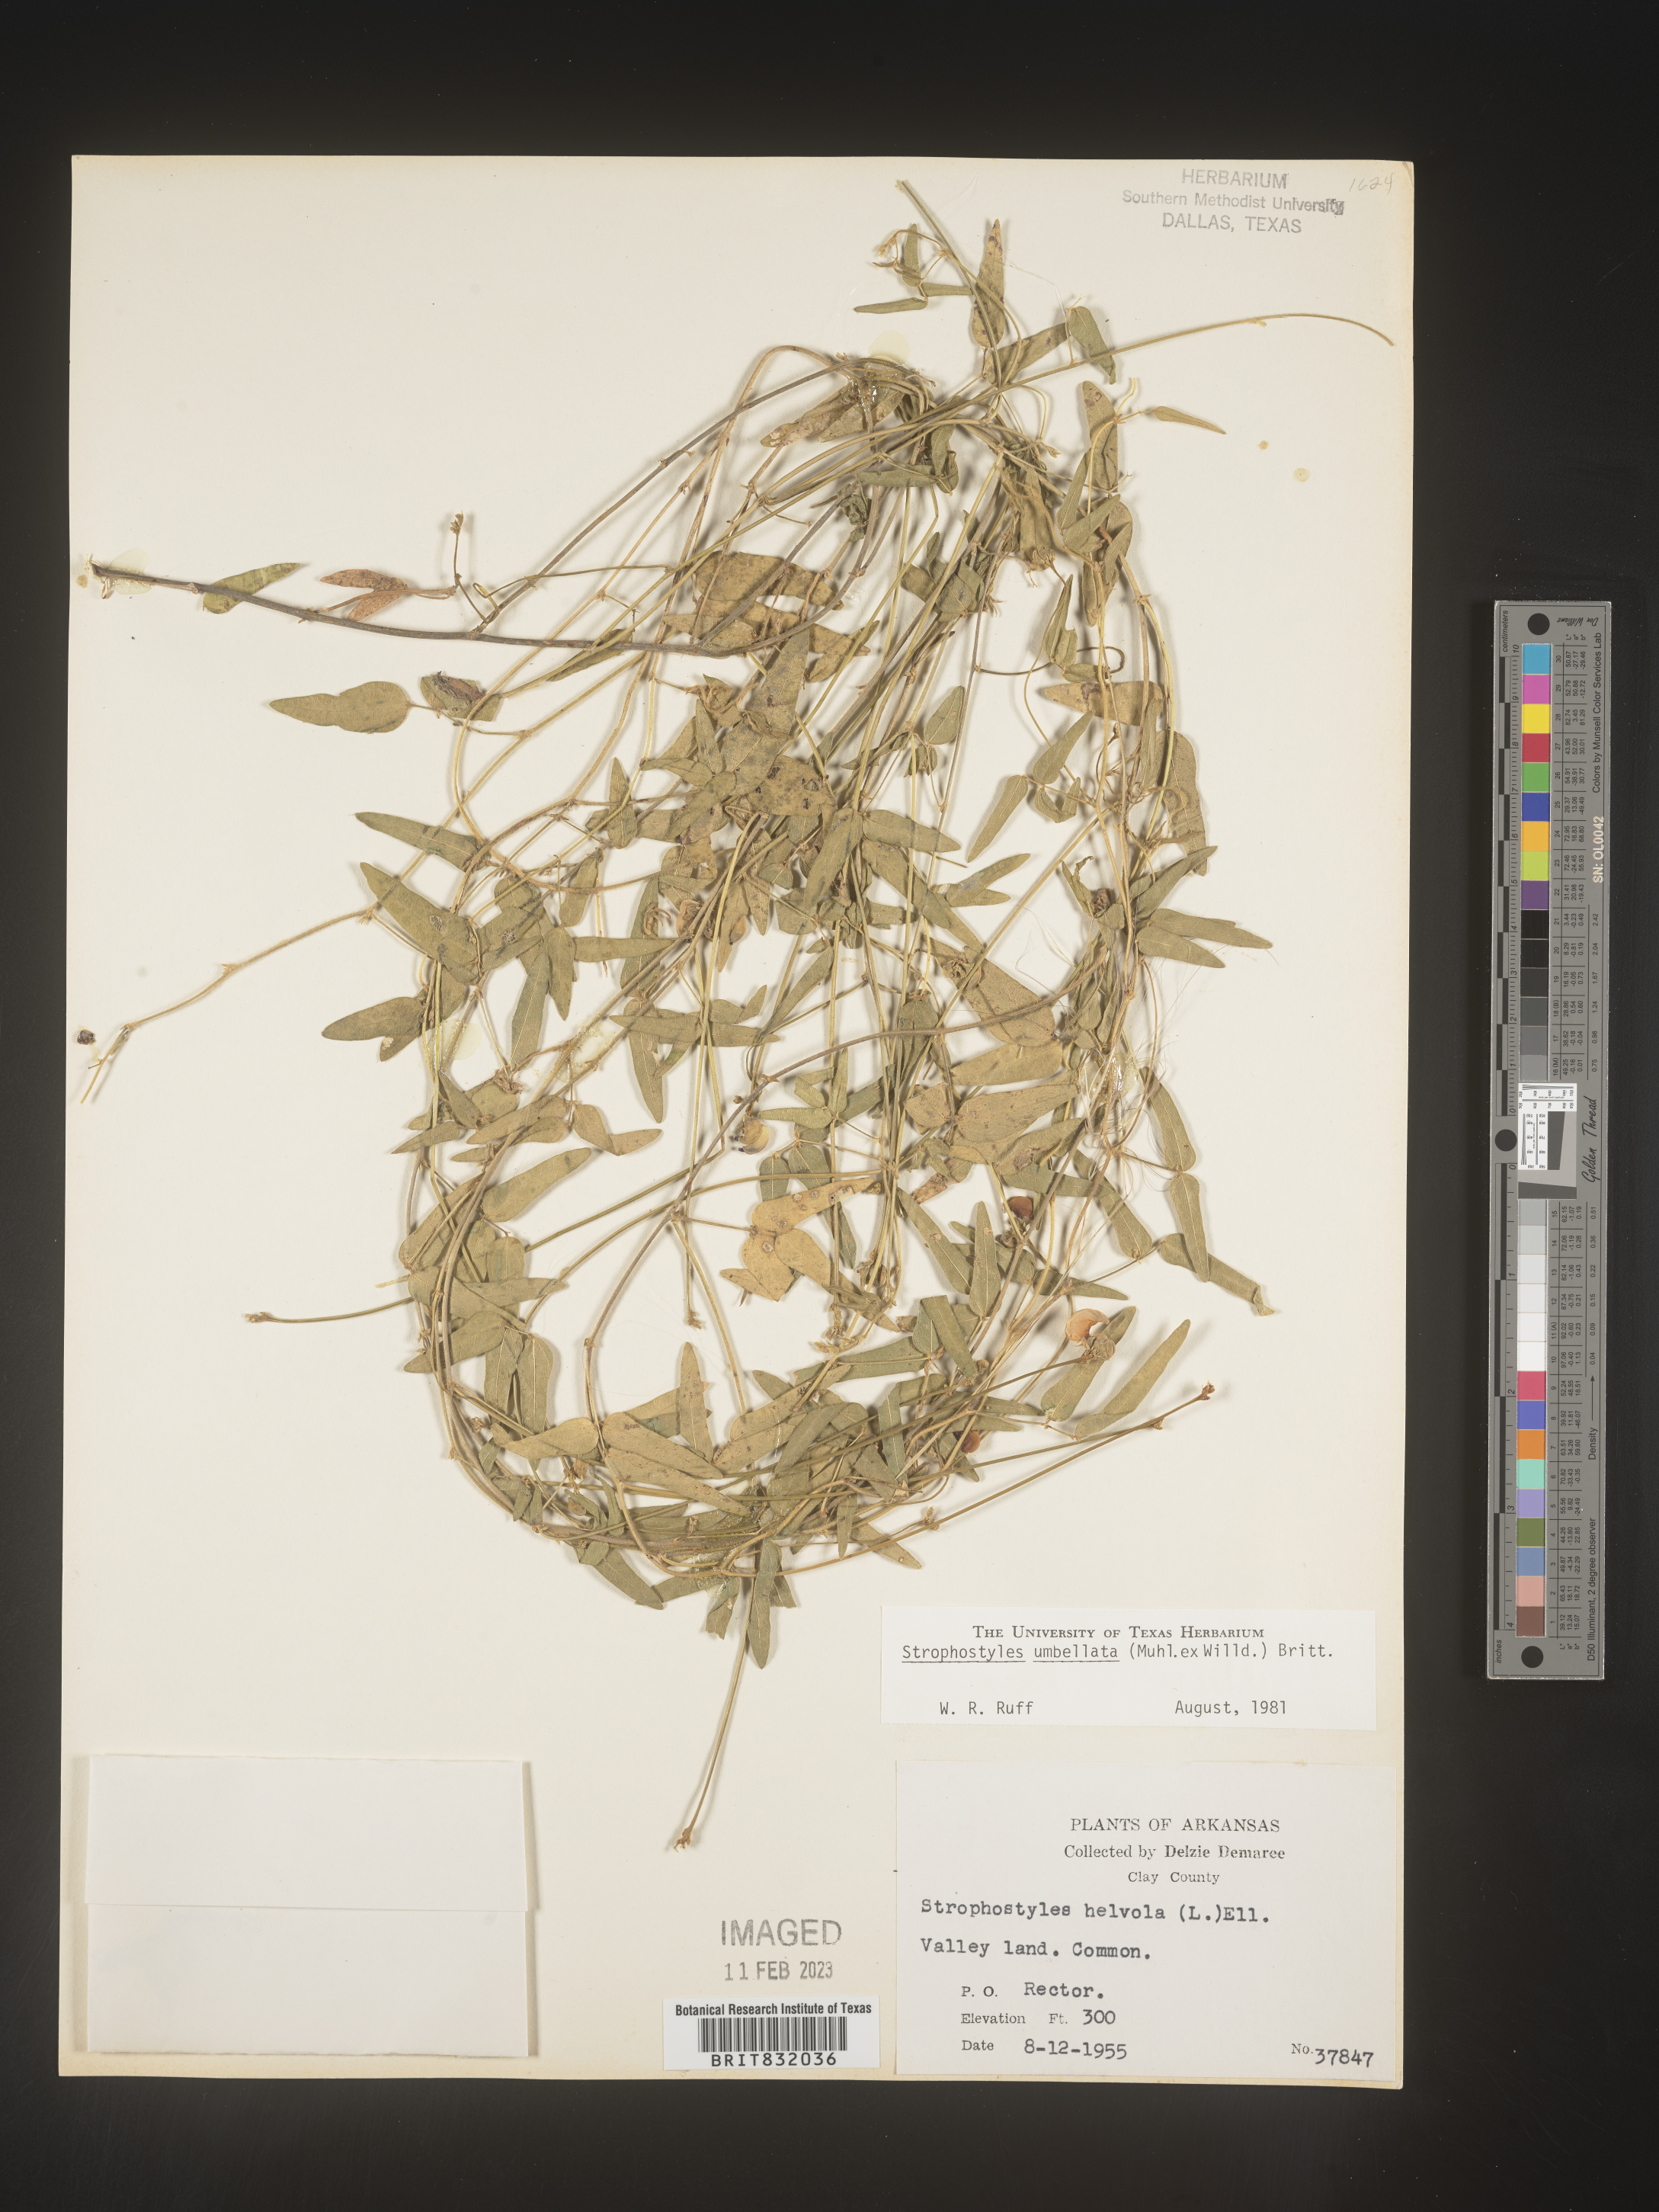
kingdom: Plantae
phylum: Tracheophyta
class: Magnoliopsida
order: Fabales
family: Fabaceae
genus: Strophostyles
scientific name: Strophostyles umbellata
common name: Perennial wild bean
